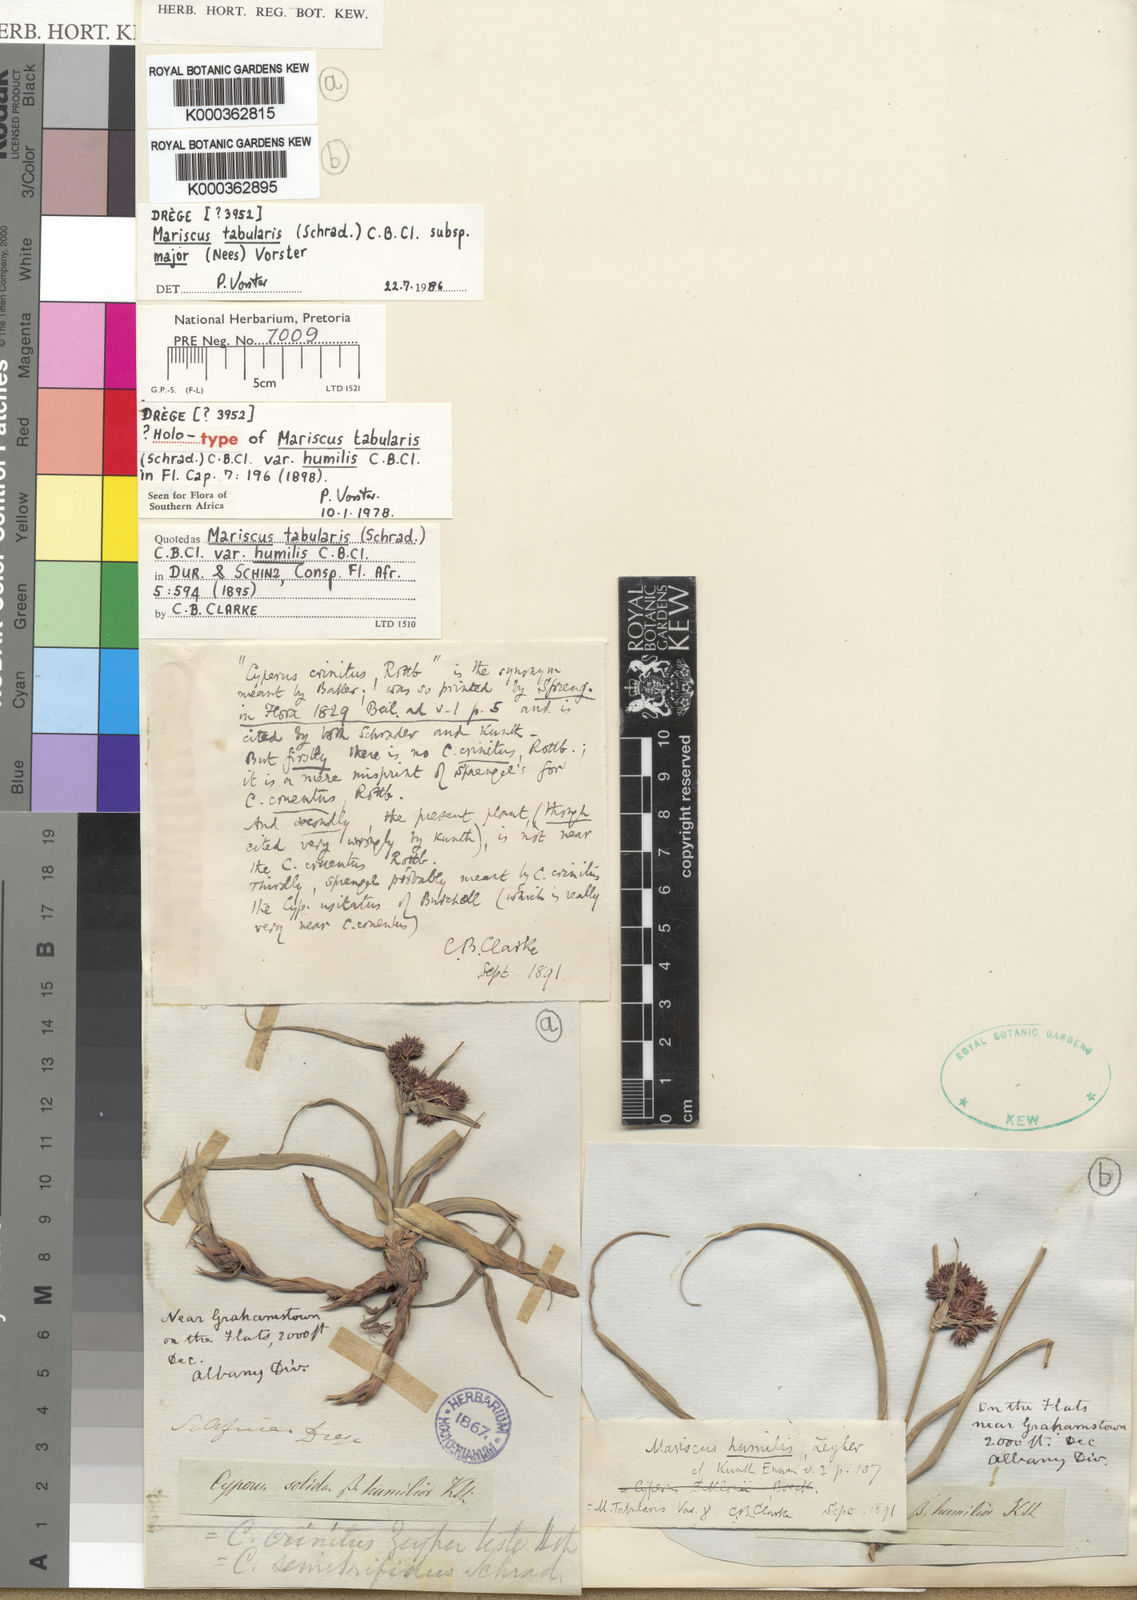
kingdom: Plantae
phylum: Tracheophyta
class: Liliopsida
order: Poales
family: Cyperaceae
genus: Cyperus
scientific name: Cyperus tabularis
